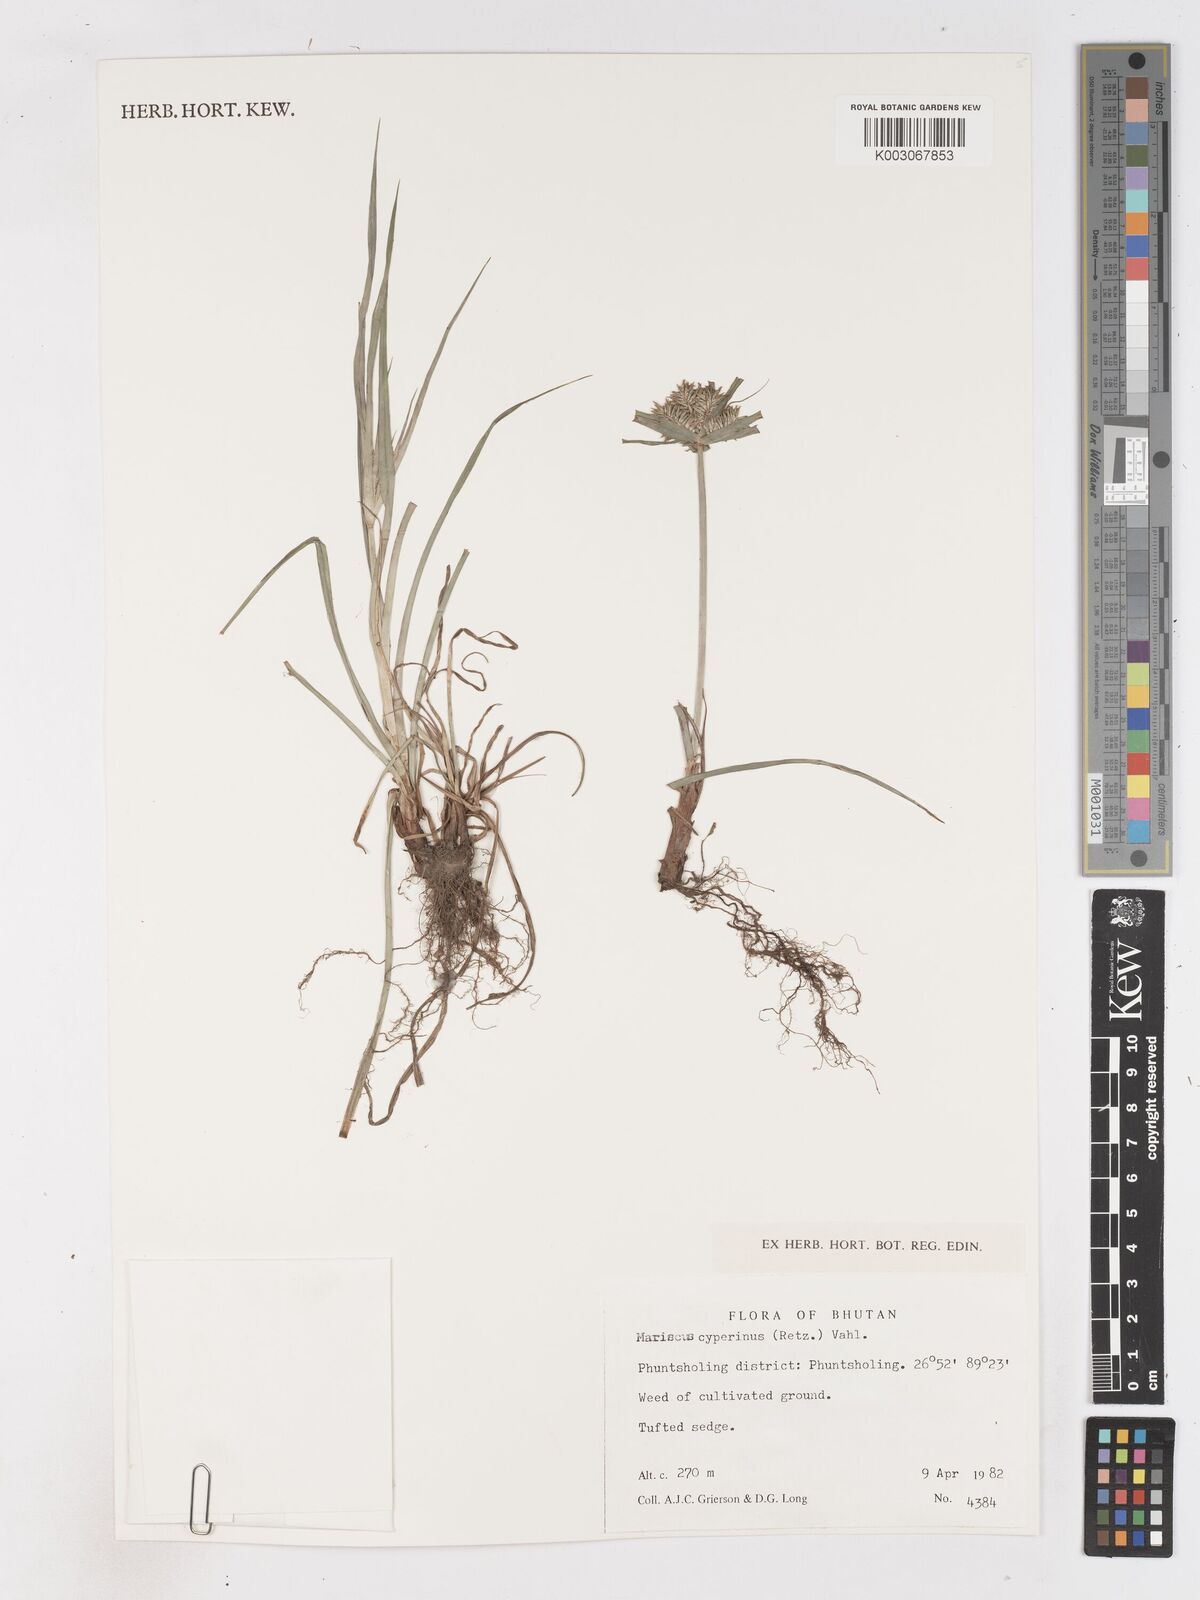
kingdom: Plantae
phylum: Tracheophyta
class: Liliopsida
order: Poales
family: Cyperaceae
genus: Cyperus
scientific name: Cyperus cyperinus
